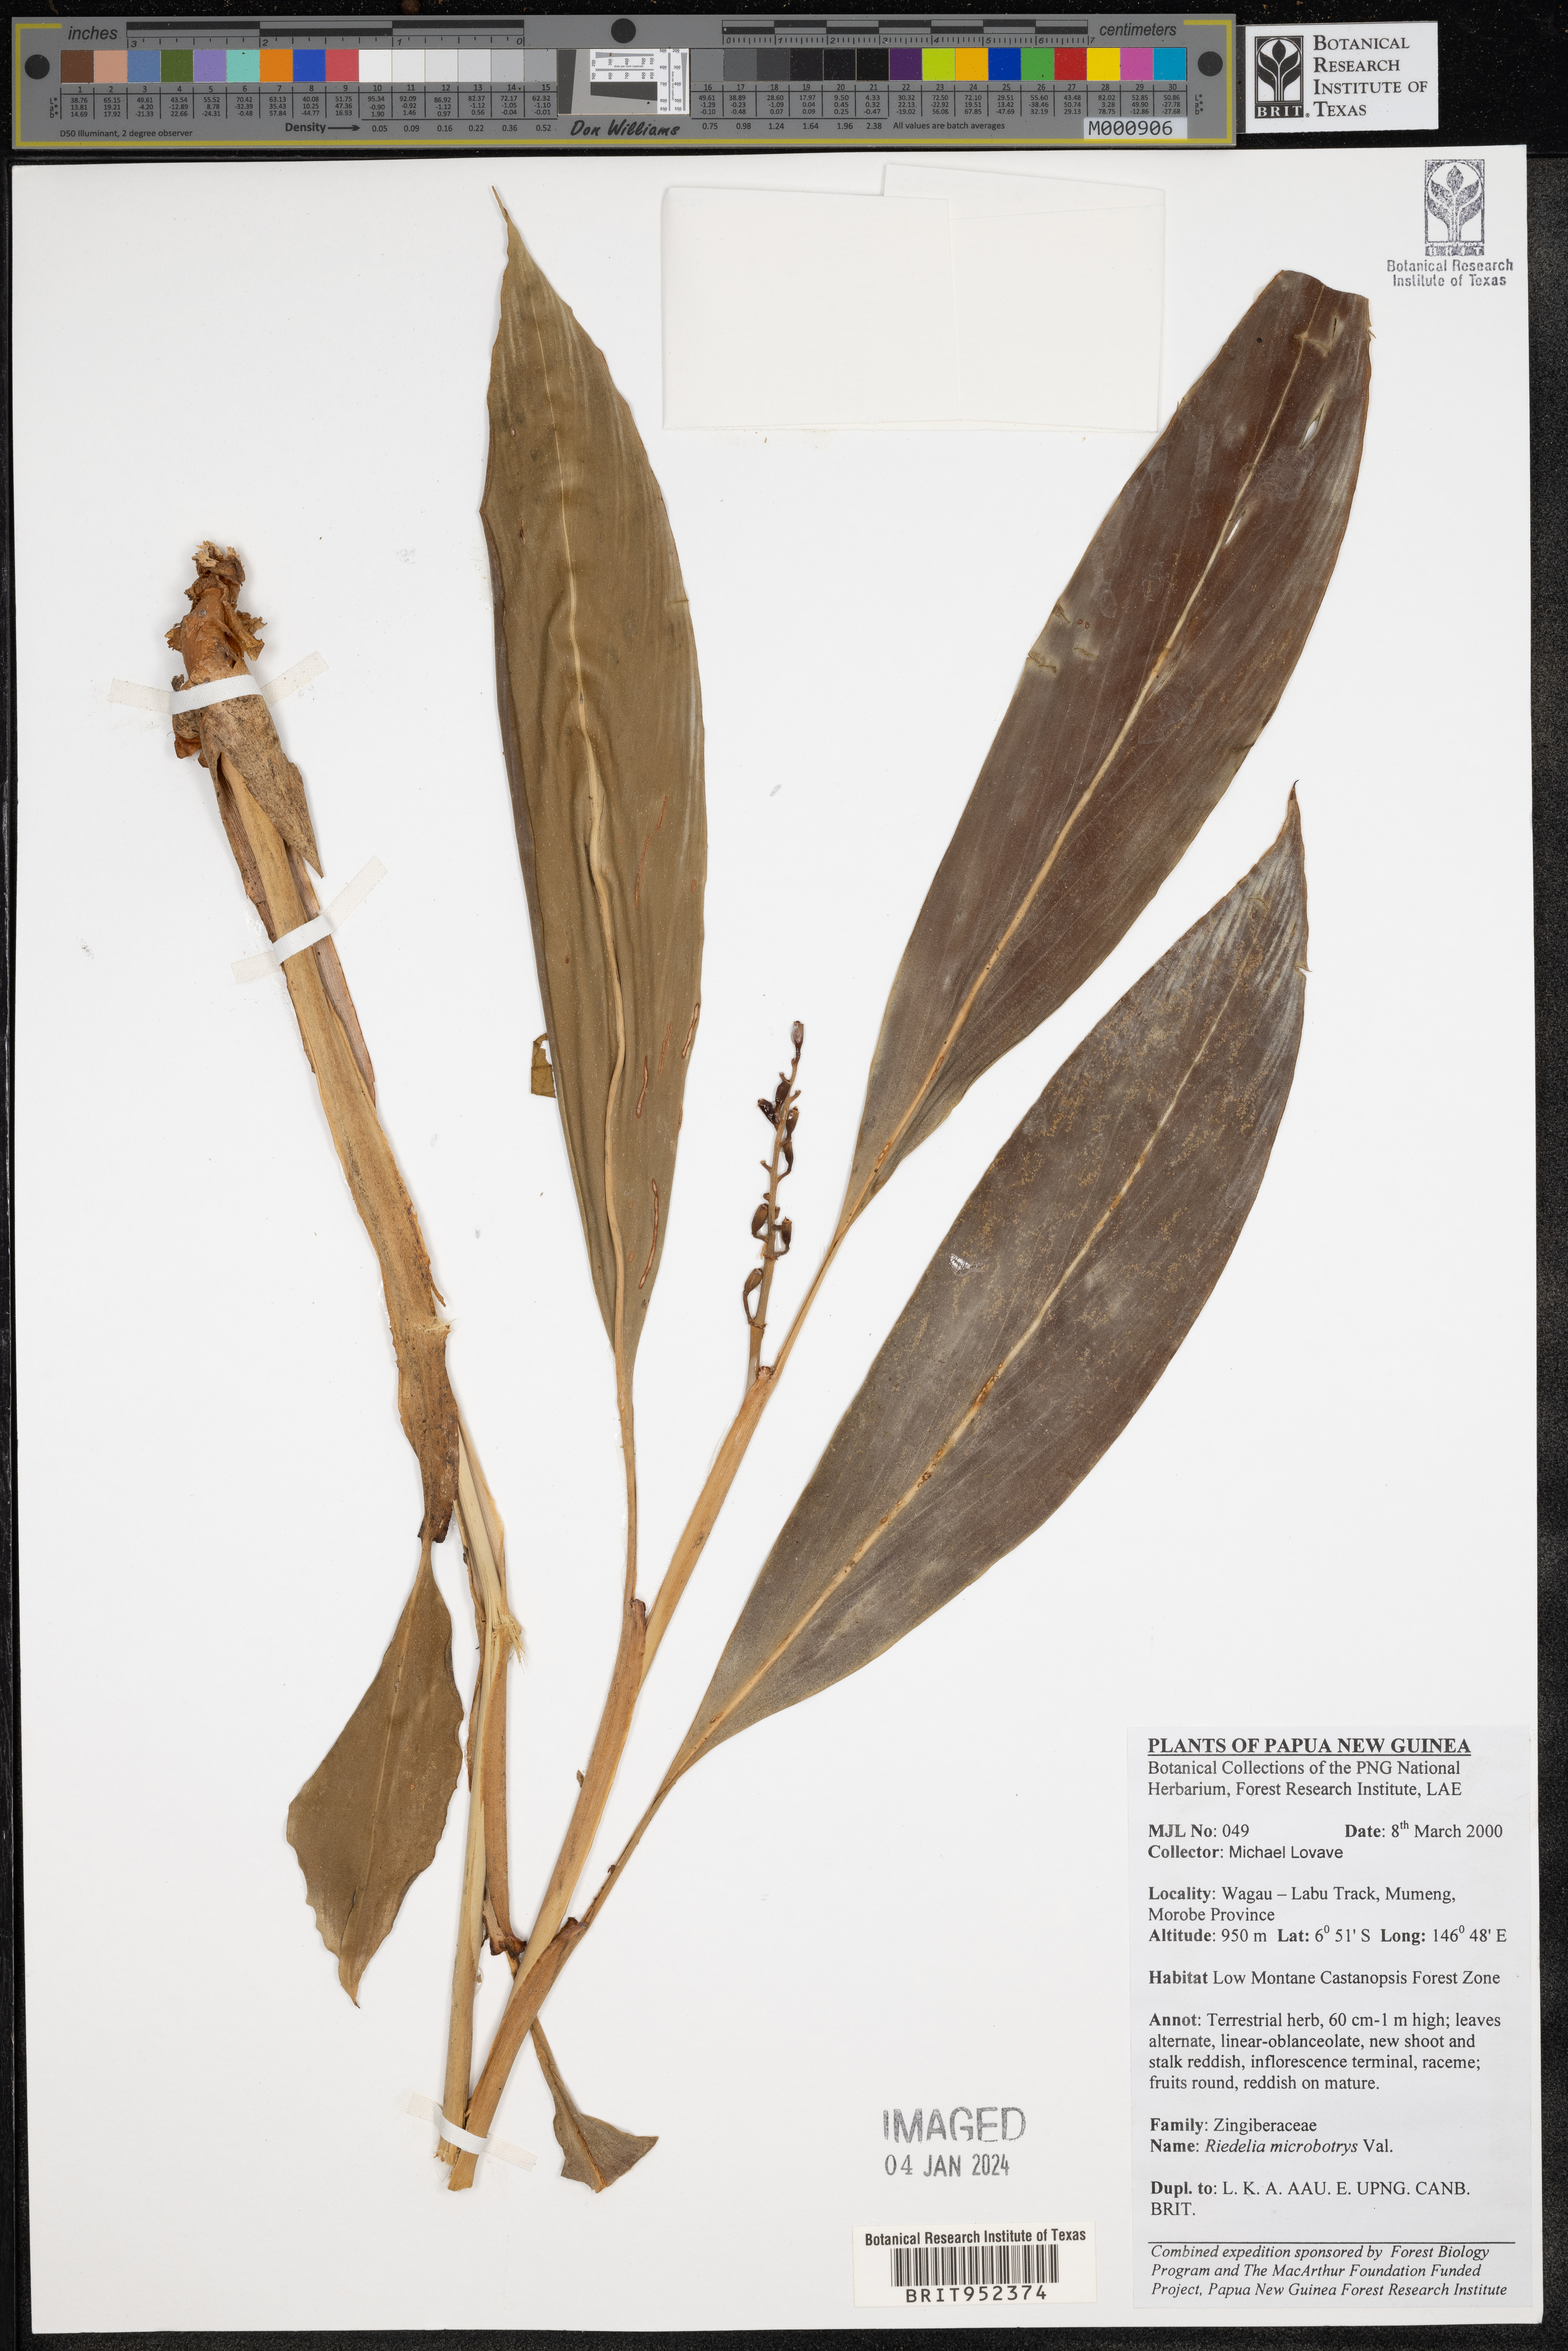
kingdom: Plantae
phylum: Tracheophyta
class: Liliopsida
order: Zingiberales
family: Zingiberaceae
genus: Riedelia
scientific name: Riedelia
